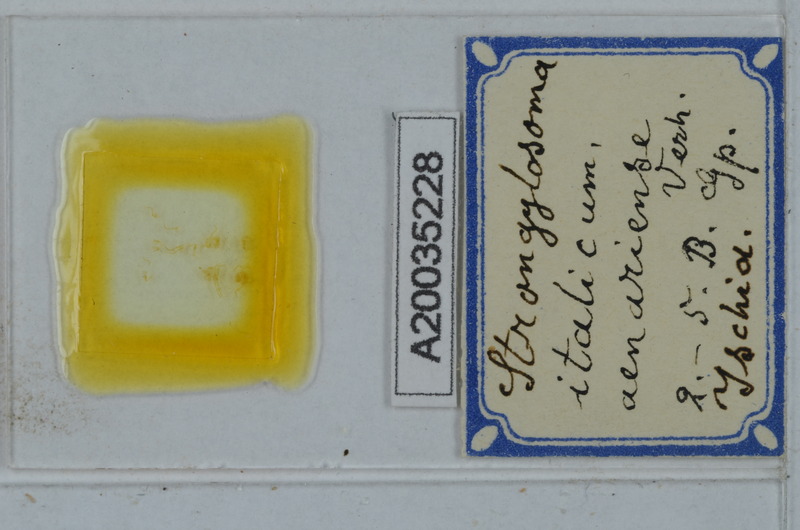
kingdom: Animalia
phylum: Arthropoda
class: Diplopoda
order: Polydesmida
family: Paradoxosomatidae
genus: Strongylosoma
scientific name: Strongylosoma italica
